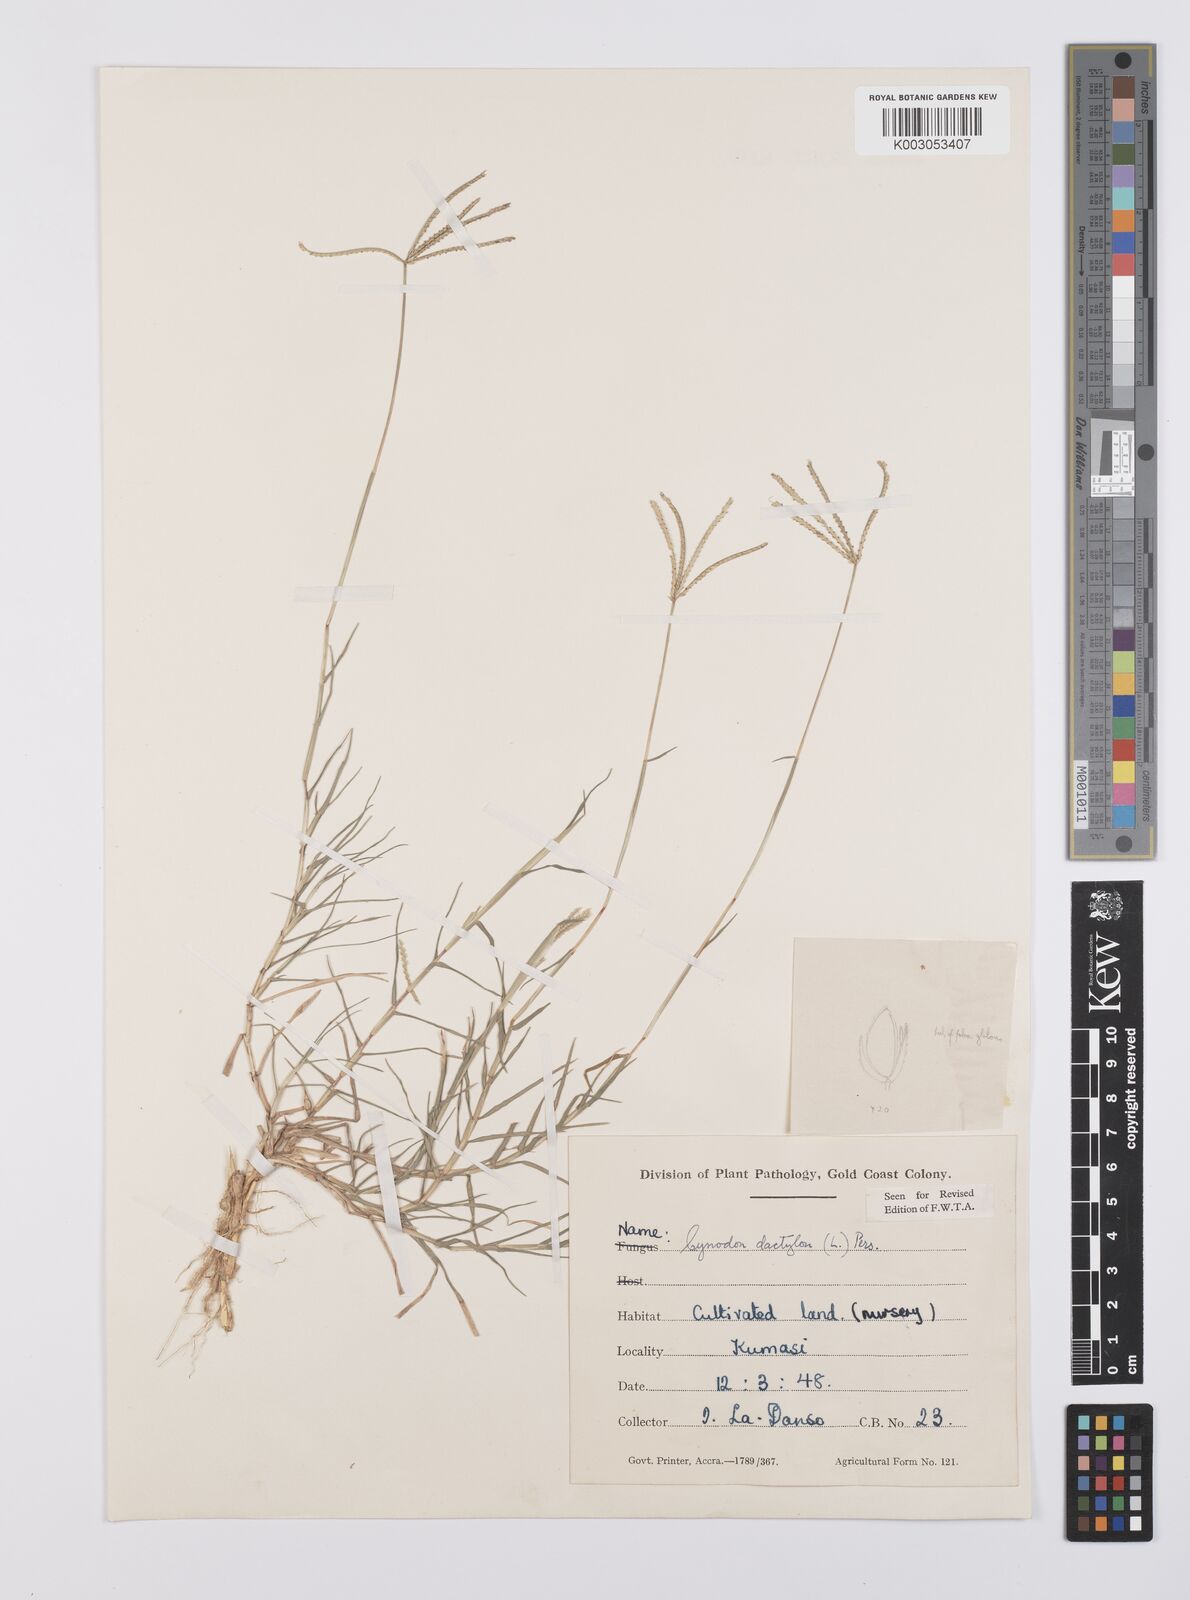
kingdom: Plantae
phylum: Tracheophyta
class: Liliopsida
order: Poales
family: Poaceae
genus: Cynodon
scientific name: Cynodon dactylon
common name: Bermuda grass
